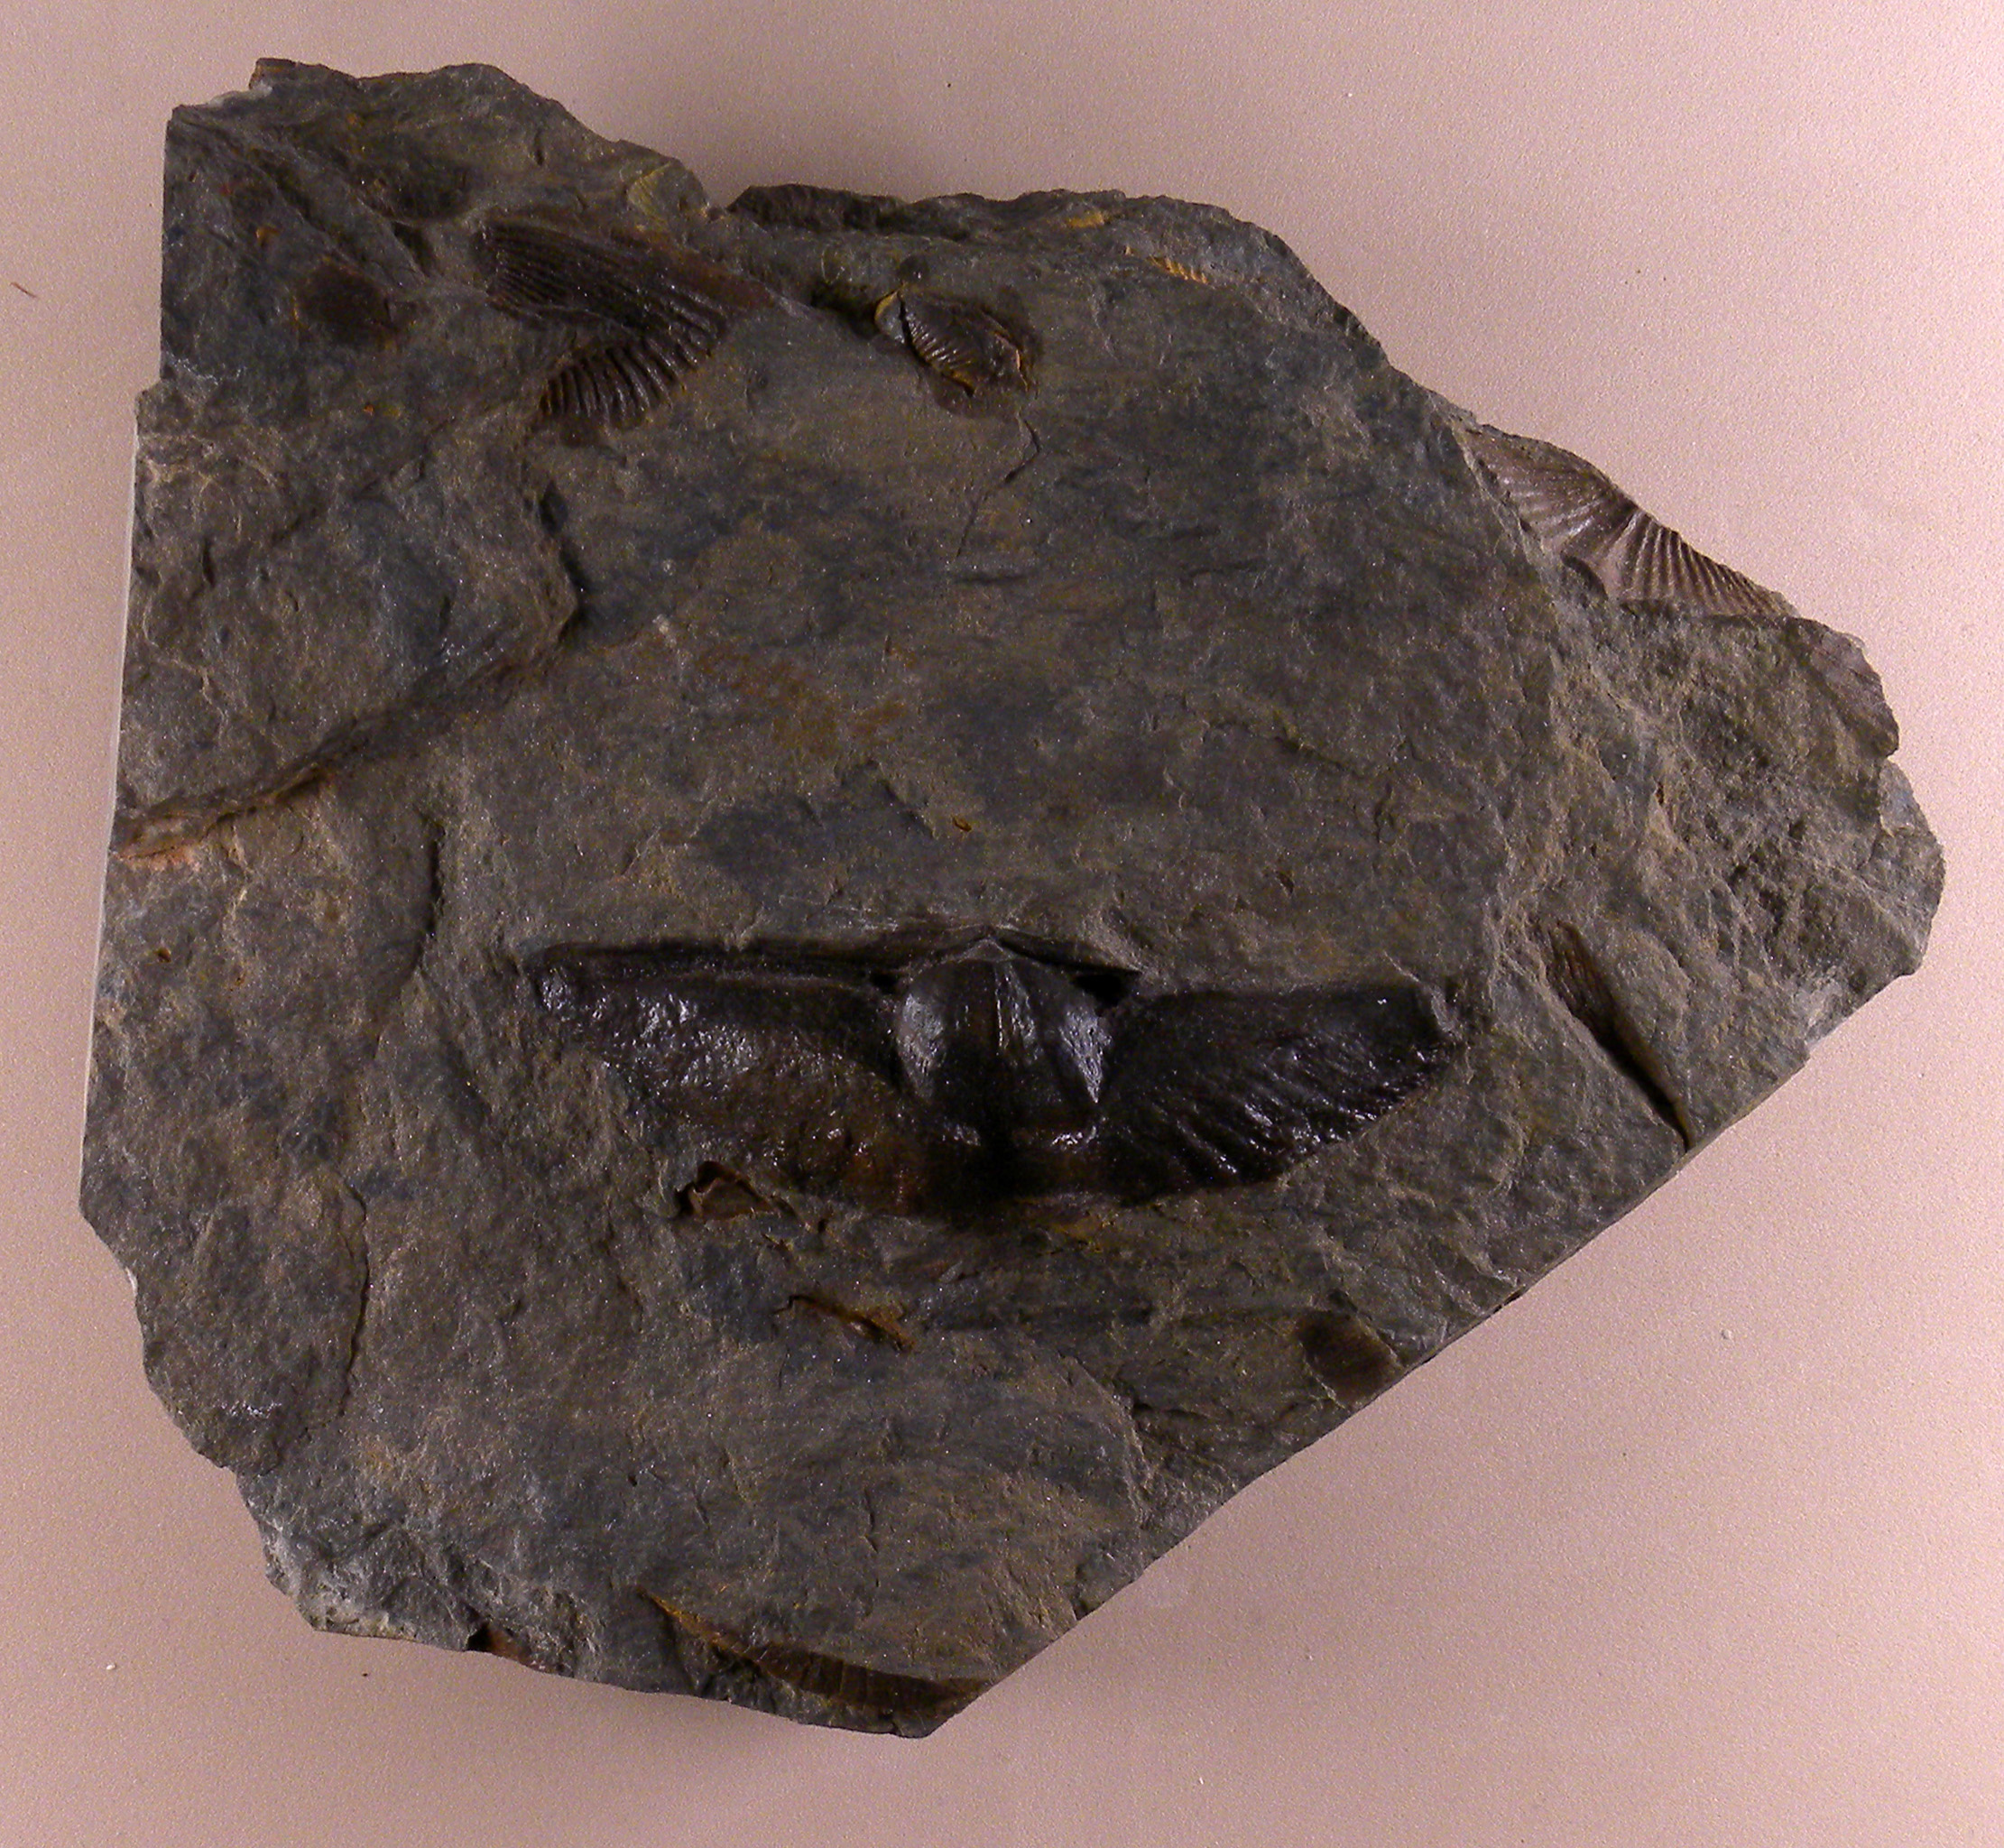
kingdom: Animalia
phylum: Brachiopoda
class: Rhynchonellata
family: Delthyrididae
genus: Euryspirifer
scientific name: Euryspirifer
